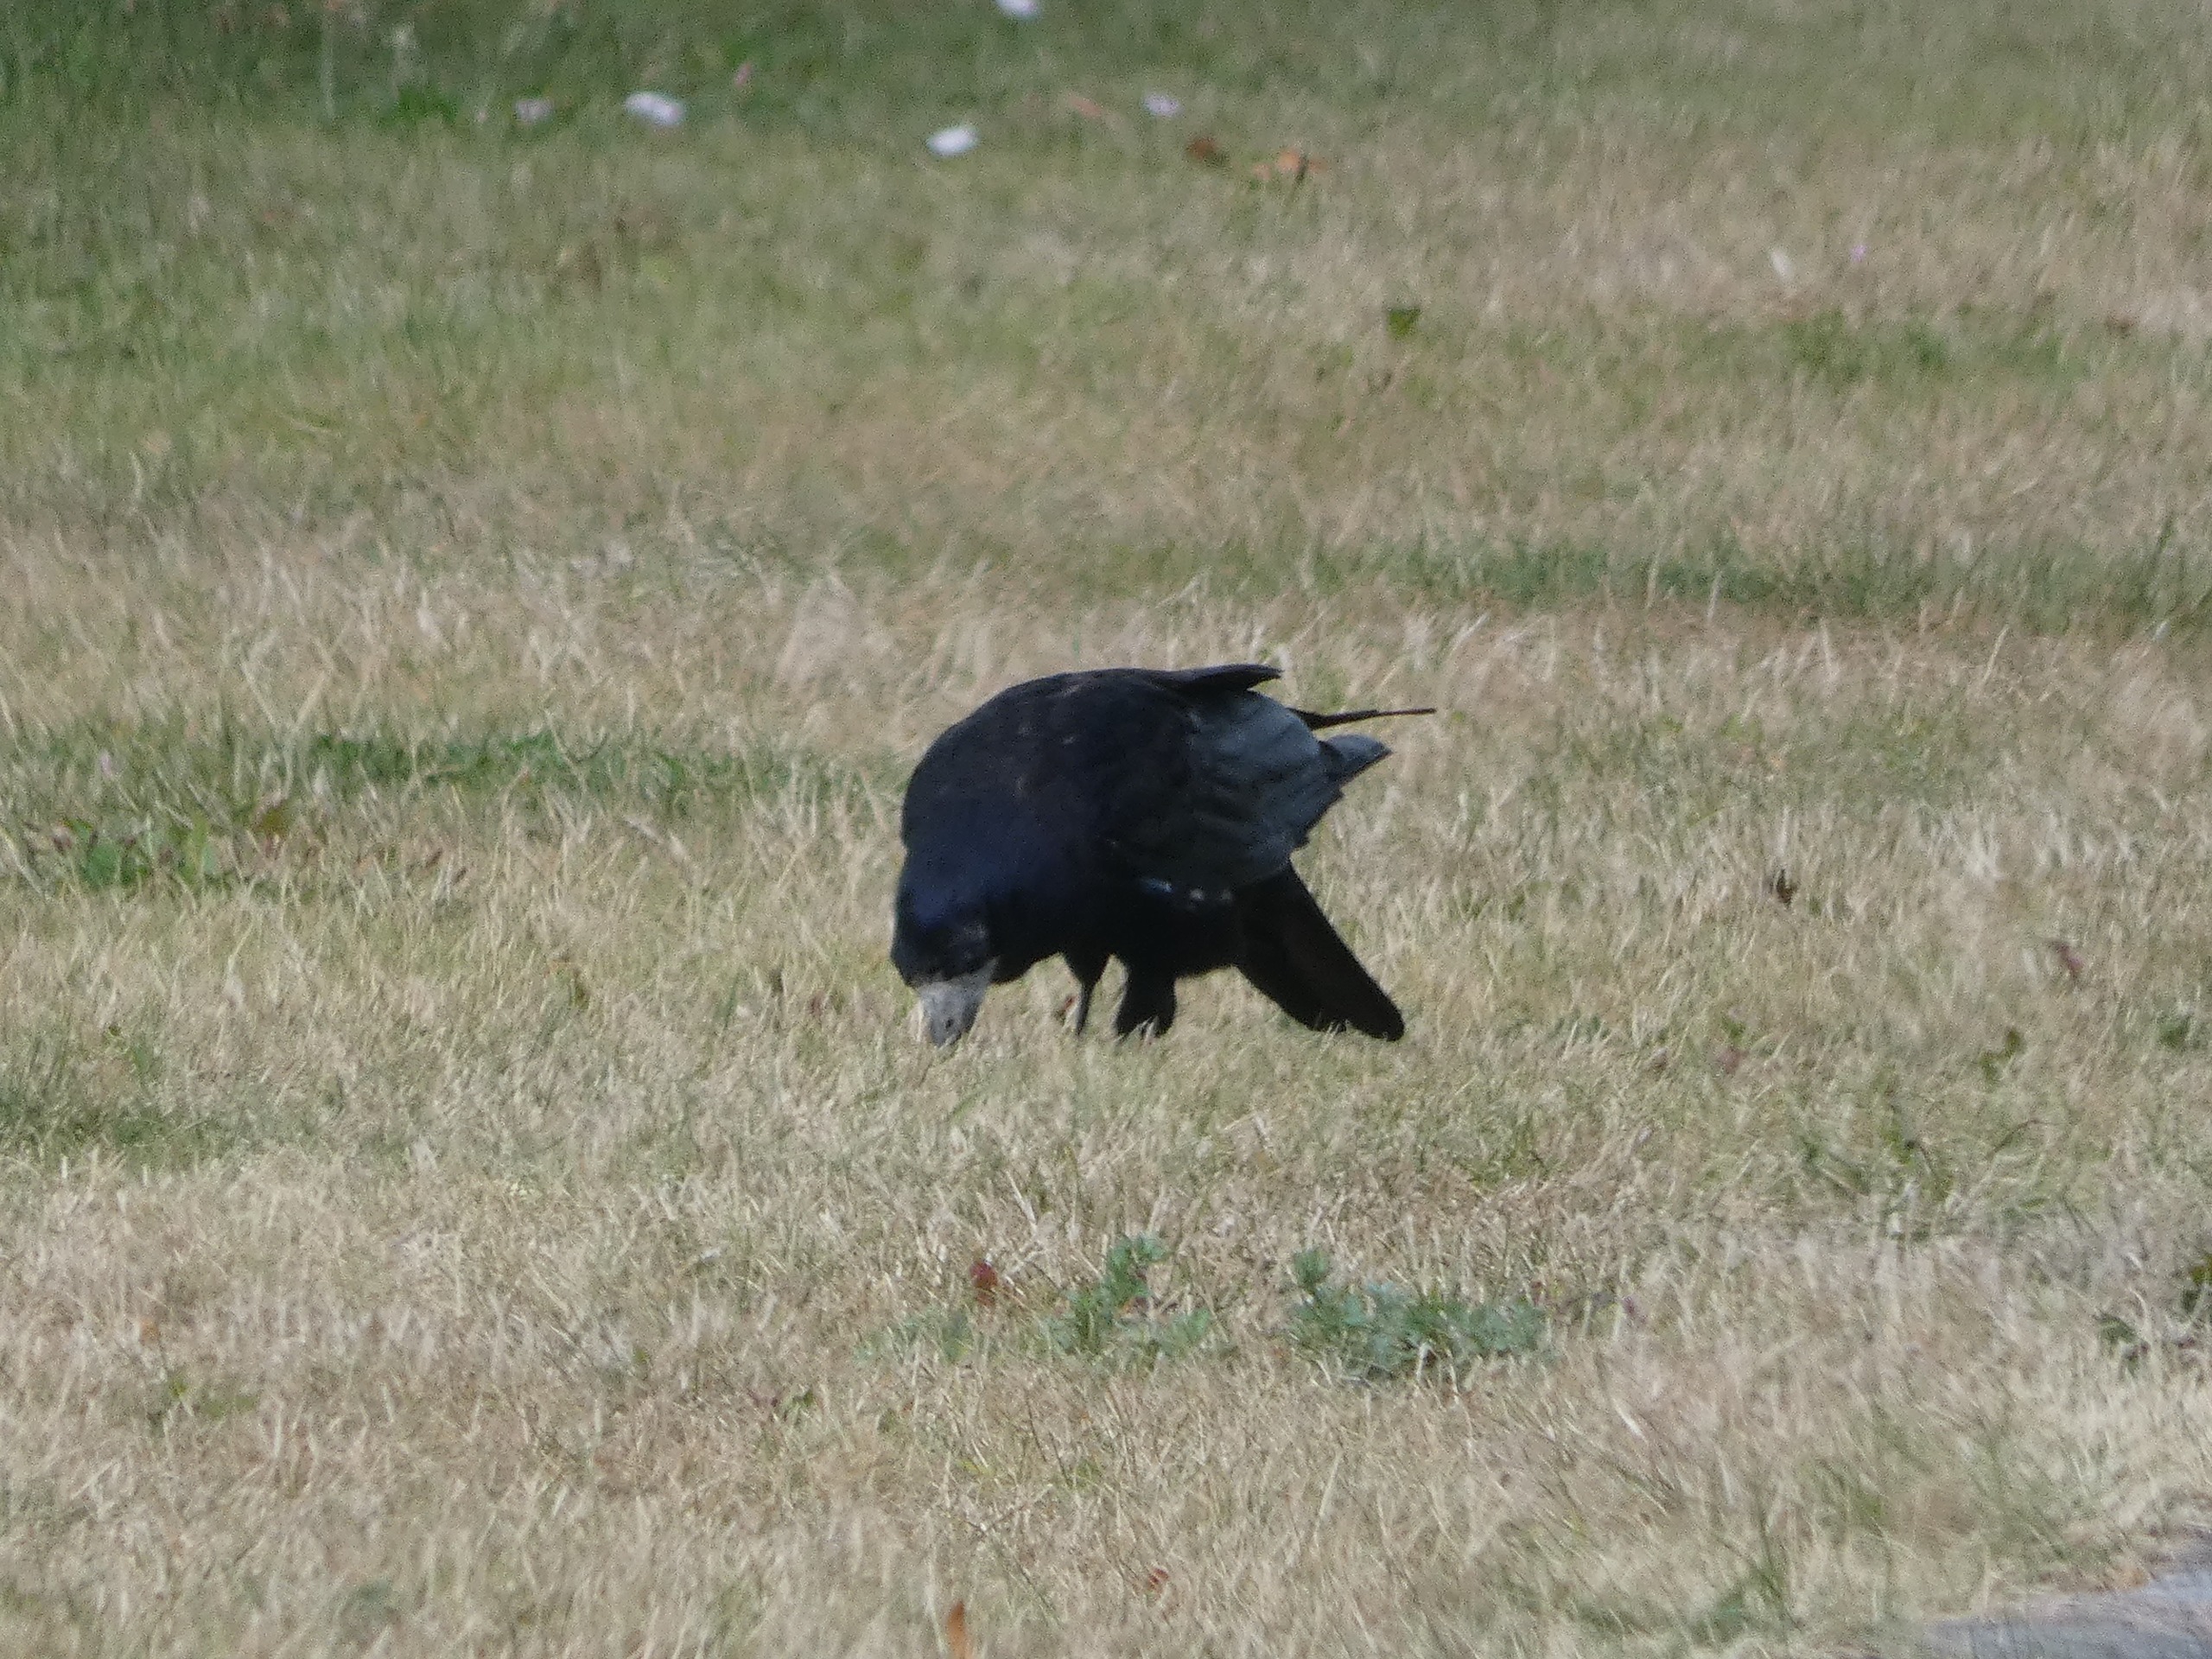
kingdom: Animalia
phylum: Chordata
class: Aves
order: Passeriformes
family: Corvidae
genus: Corvus
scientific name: Corvus frugilegus
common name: Råge
